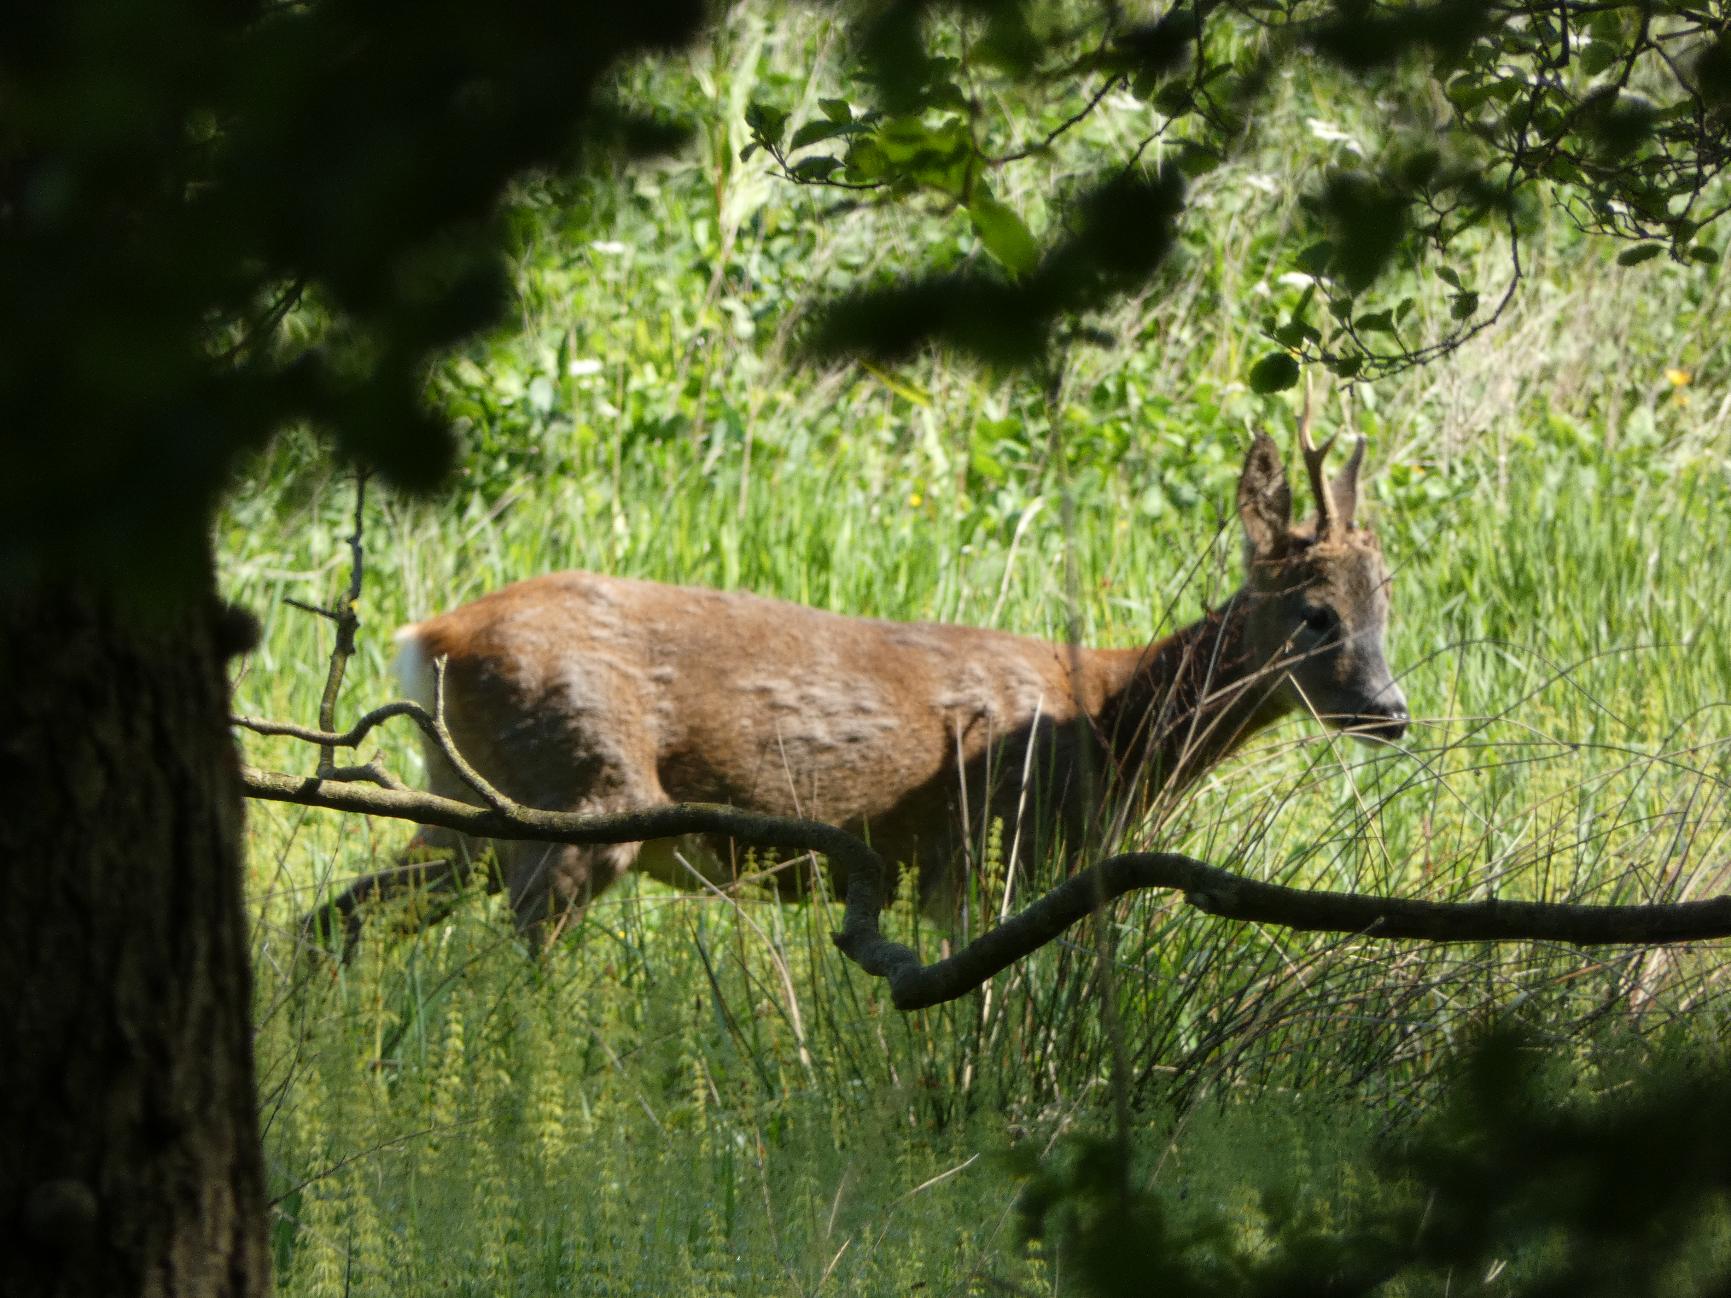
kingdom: Animalia
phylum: Chordata
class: Mammalia
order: Artiodactyla
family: Cervidae
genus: Capreolus
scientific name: Capreolus capreolus
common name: Rådyr
